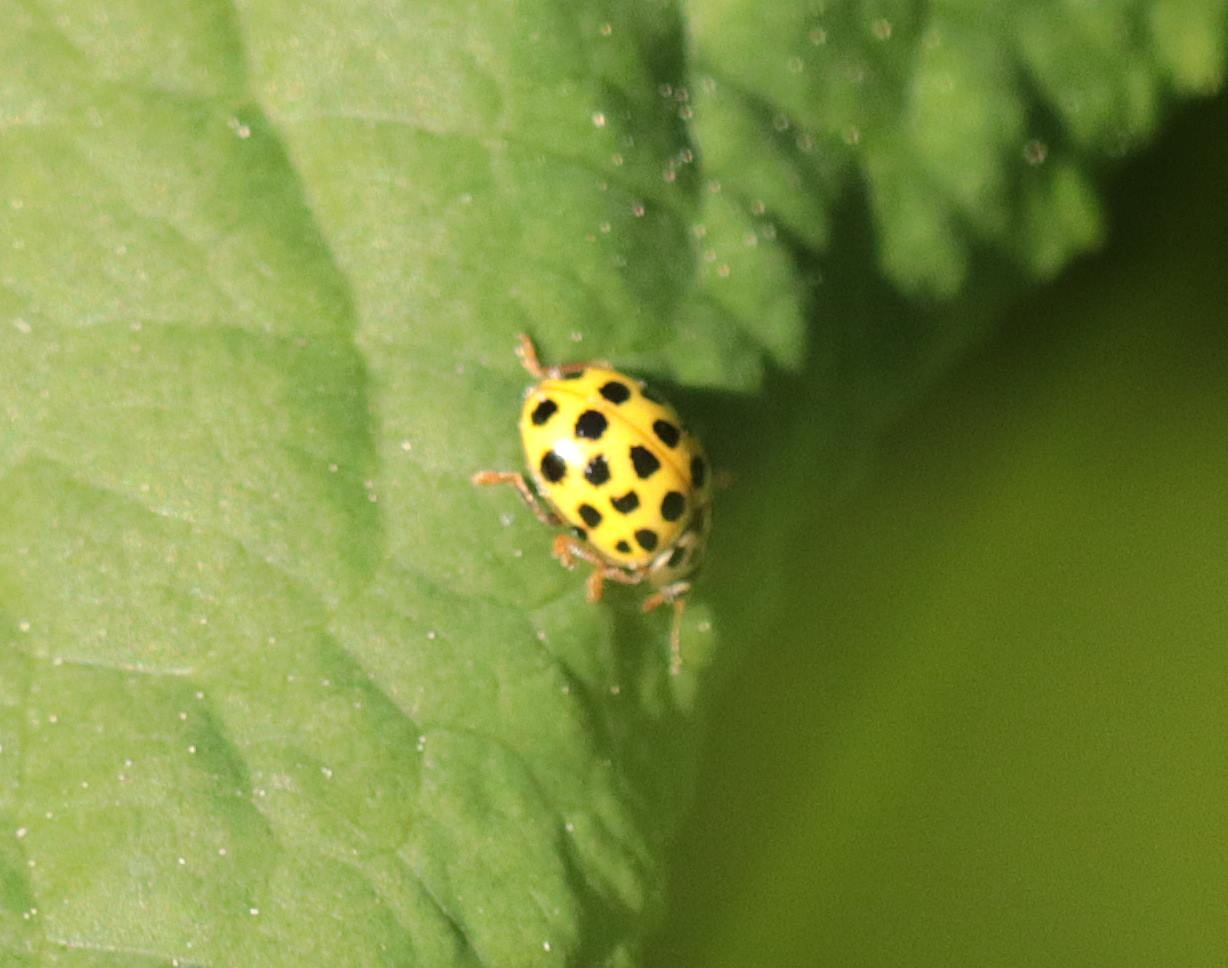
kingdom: Animalia
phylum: Arthropoda
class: Insecta
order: Coleoptera
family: Coccinellidae
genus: Psyllobora
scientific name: Psyllobora vigintiduopunctata
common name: Toogtyveplettet mariehøne
